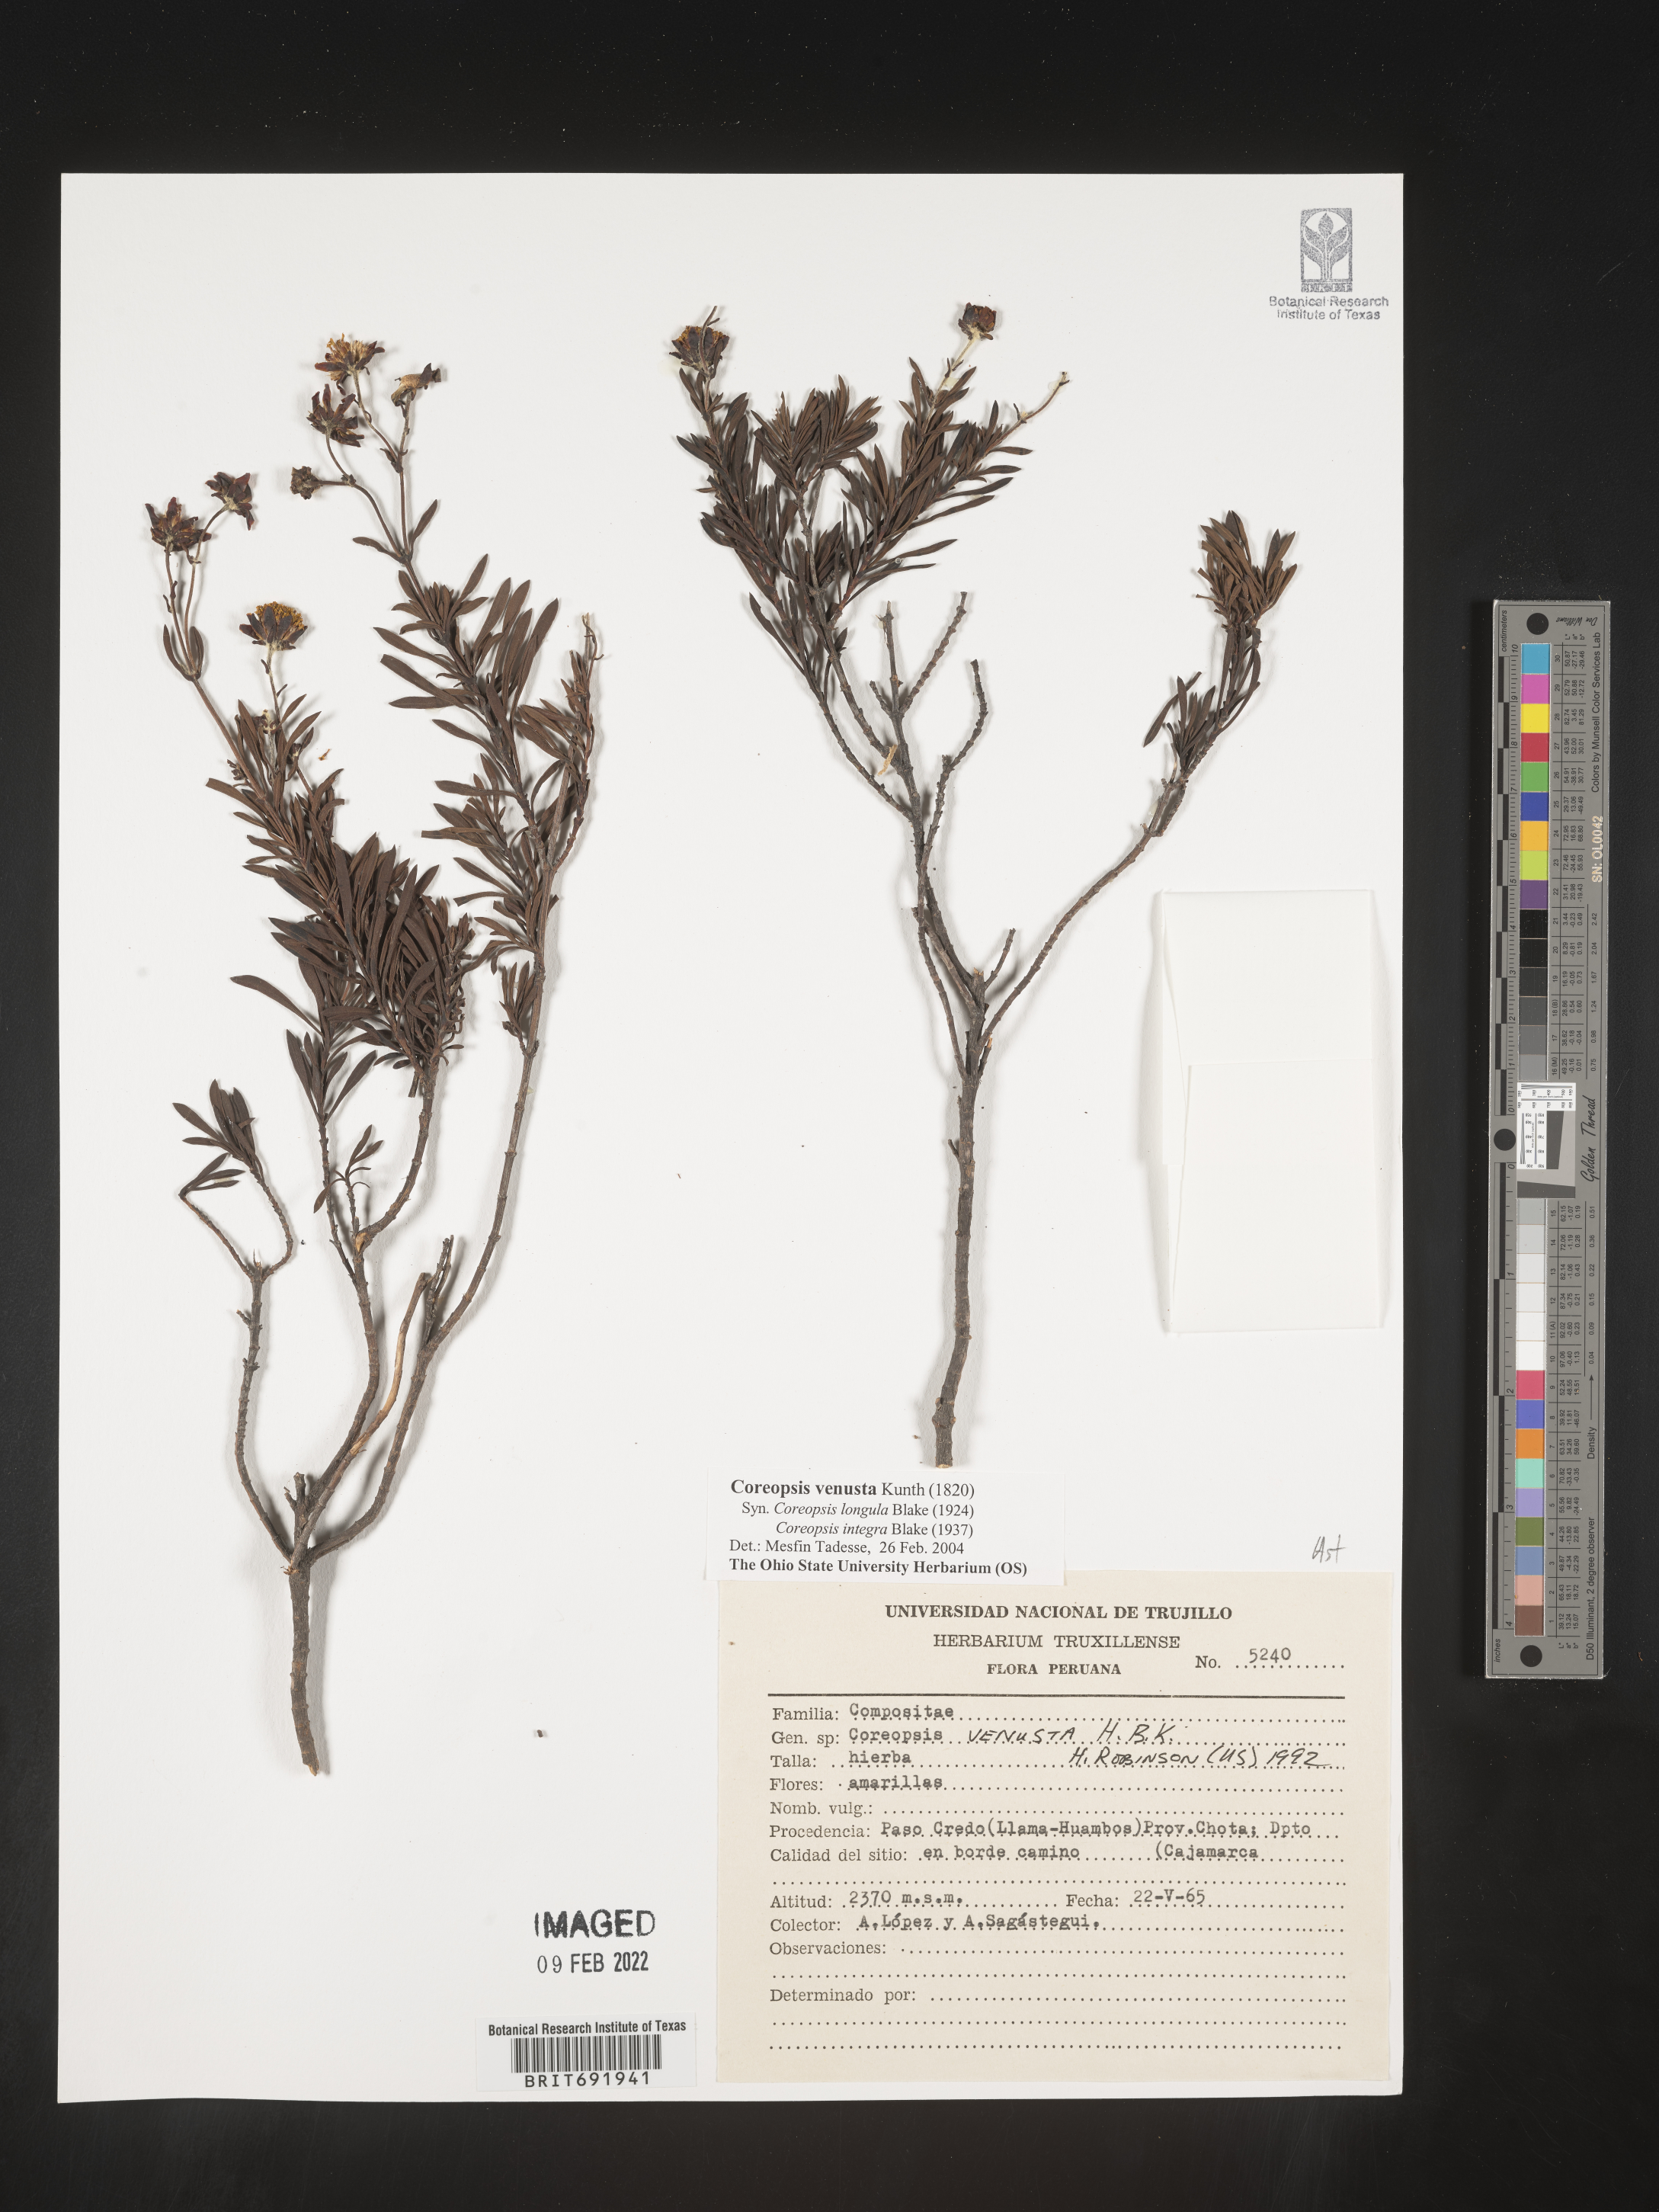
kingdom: Plantae
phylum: Tracheophyta
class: Magnoliopsida
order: Asterales
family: Asteraceae
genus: Coreopsis
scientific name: Coreopsis
